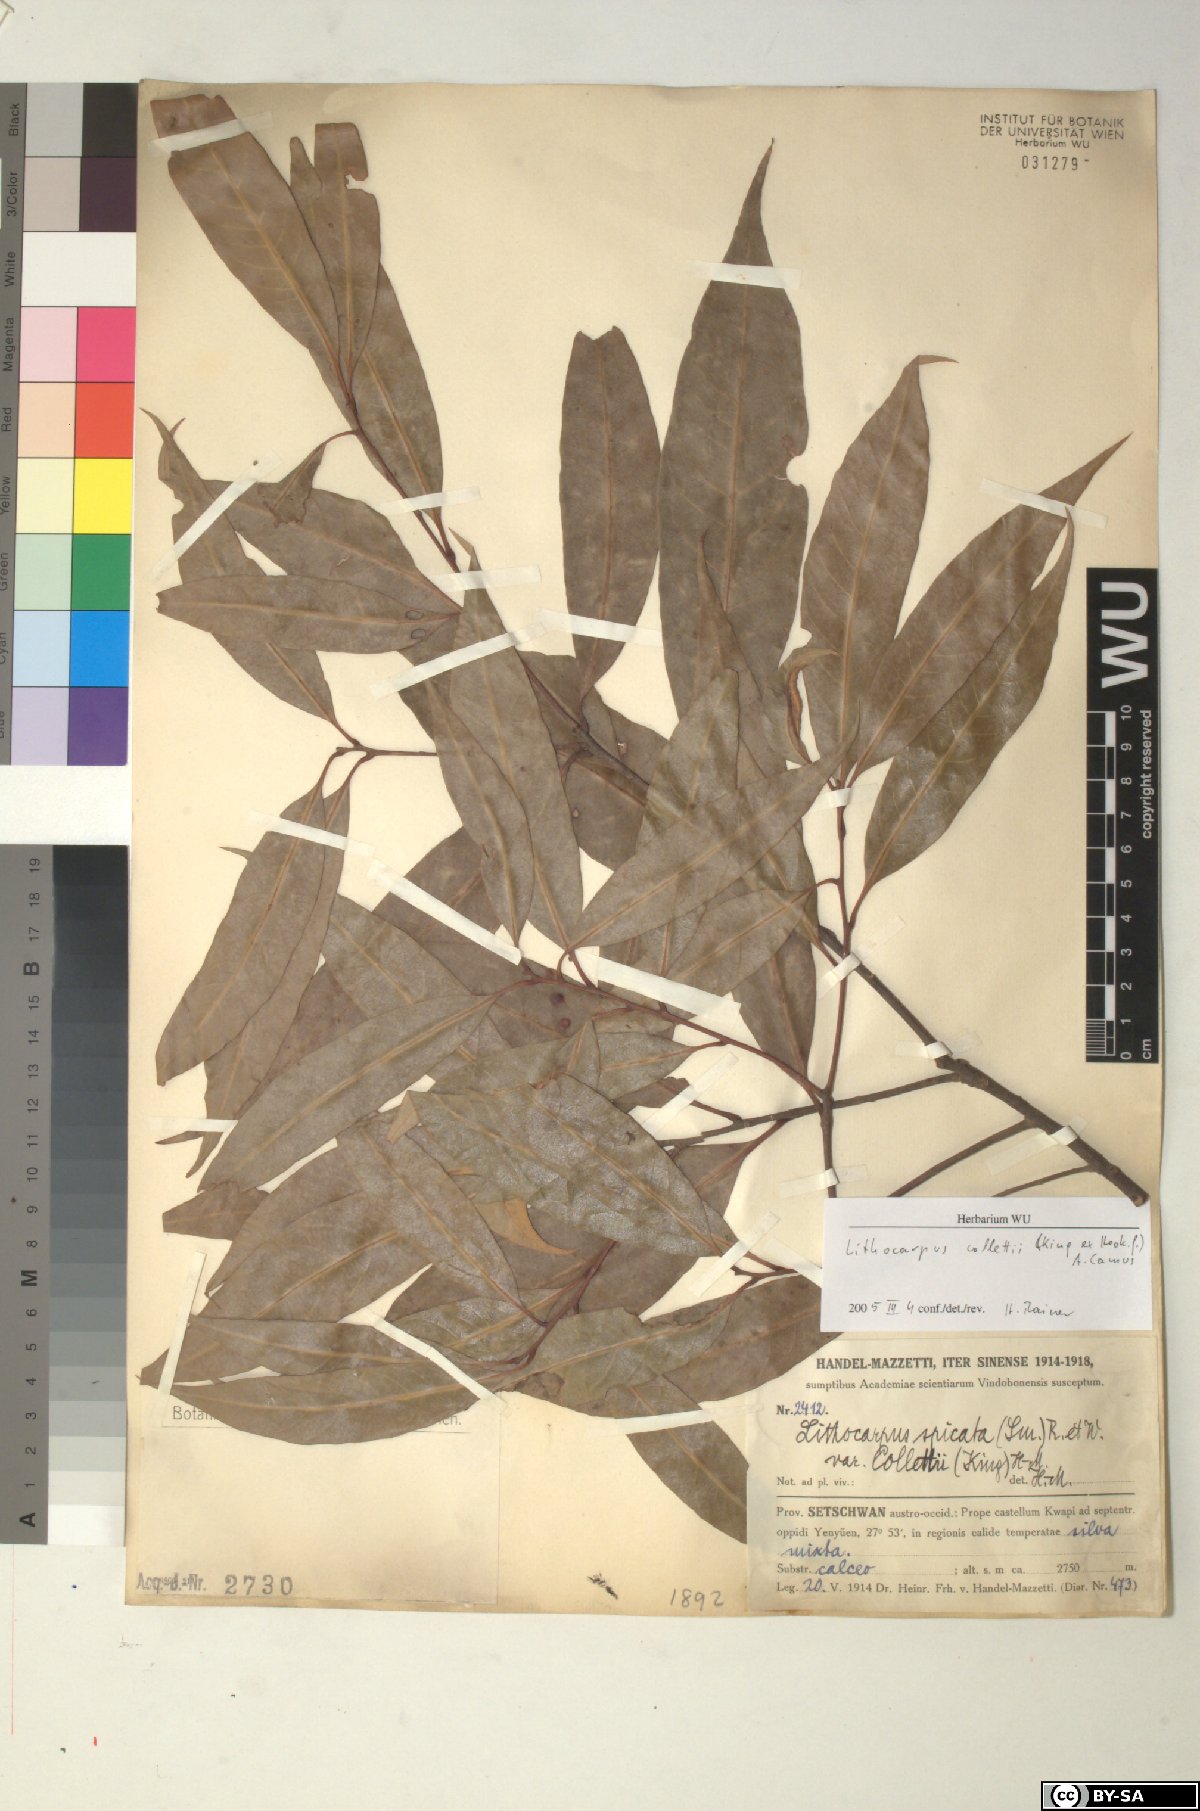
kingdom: Plantae
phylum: Tracheophyta
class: Magnoliopsida
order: Fagales
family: Fagaceae
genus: Lithocarpus
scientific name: Lithocarpus elegans
